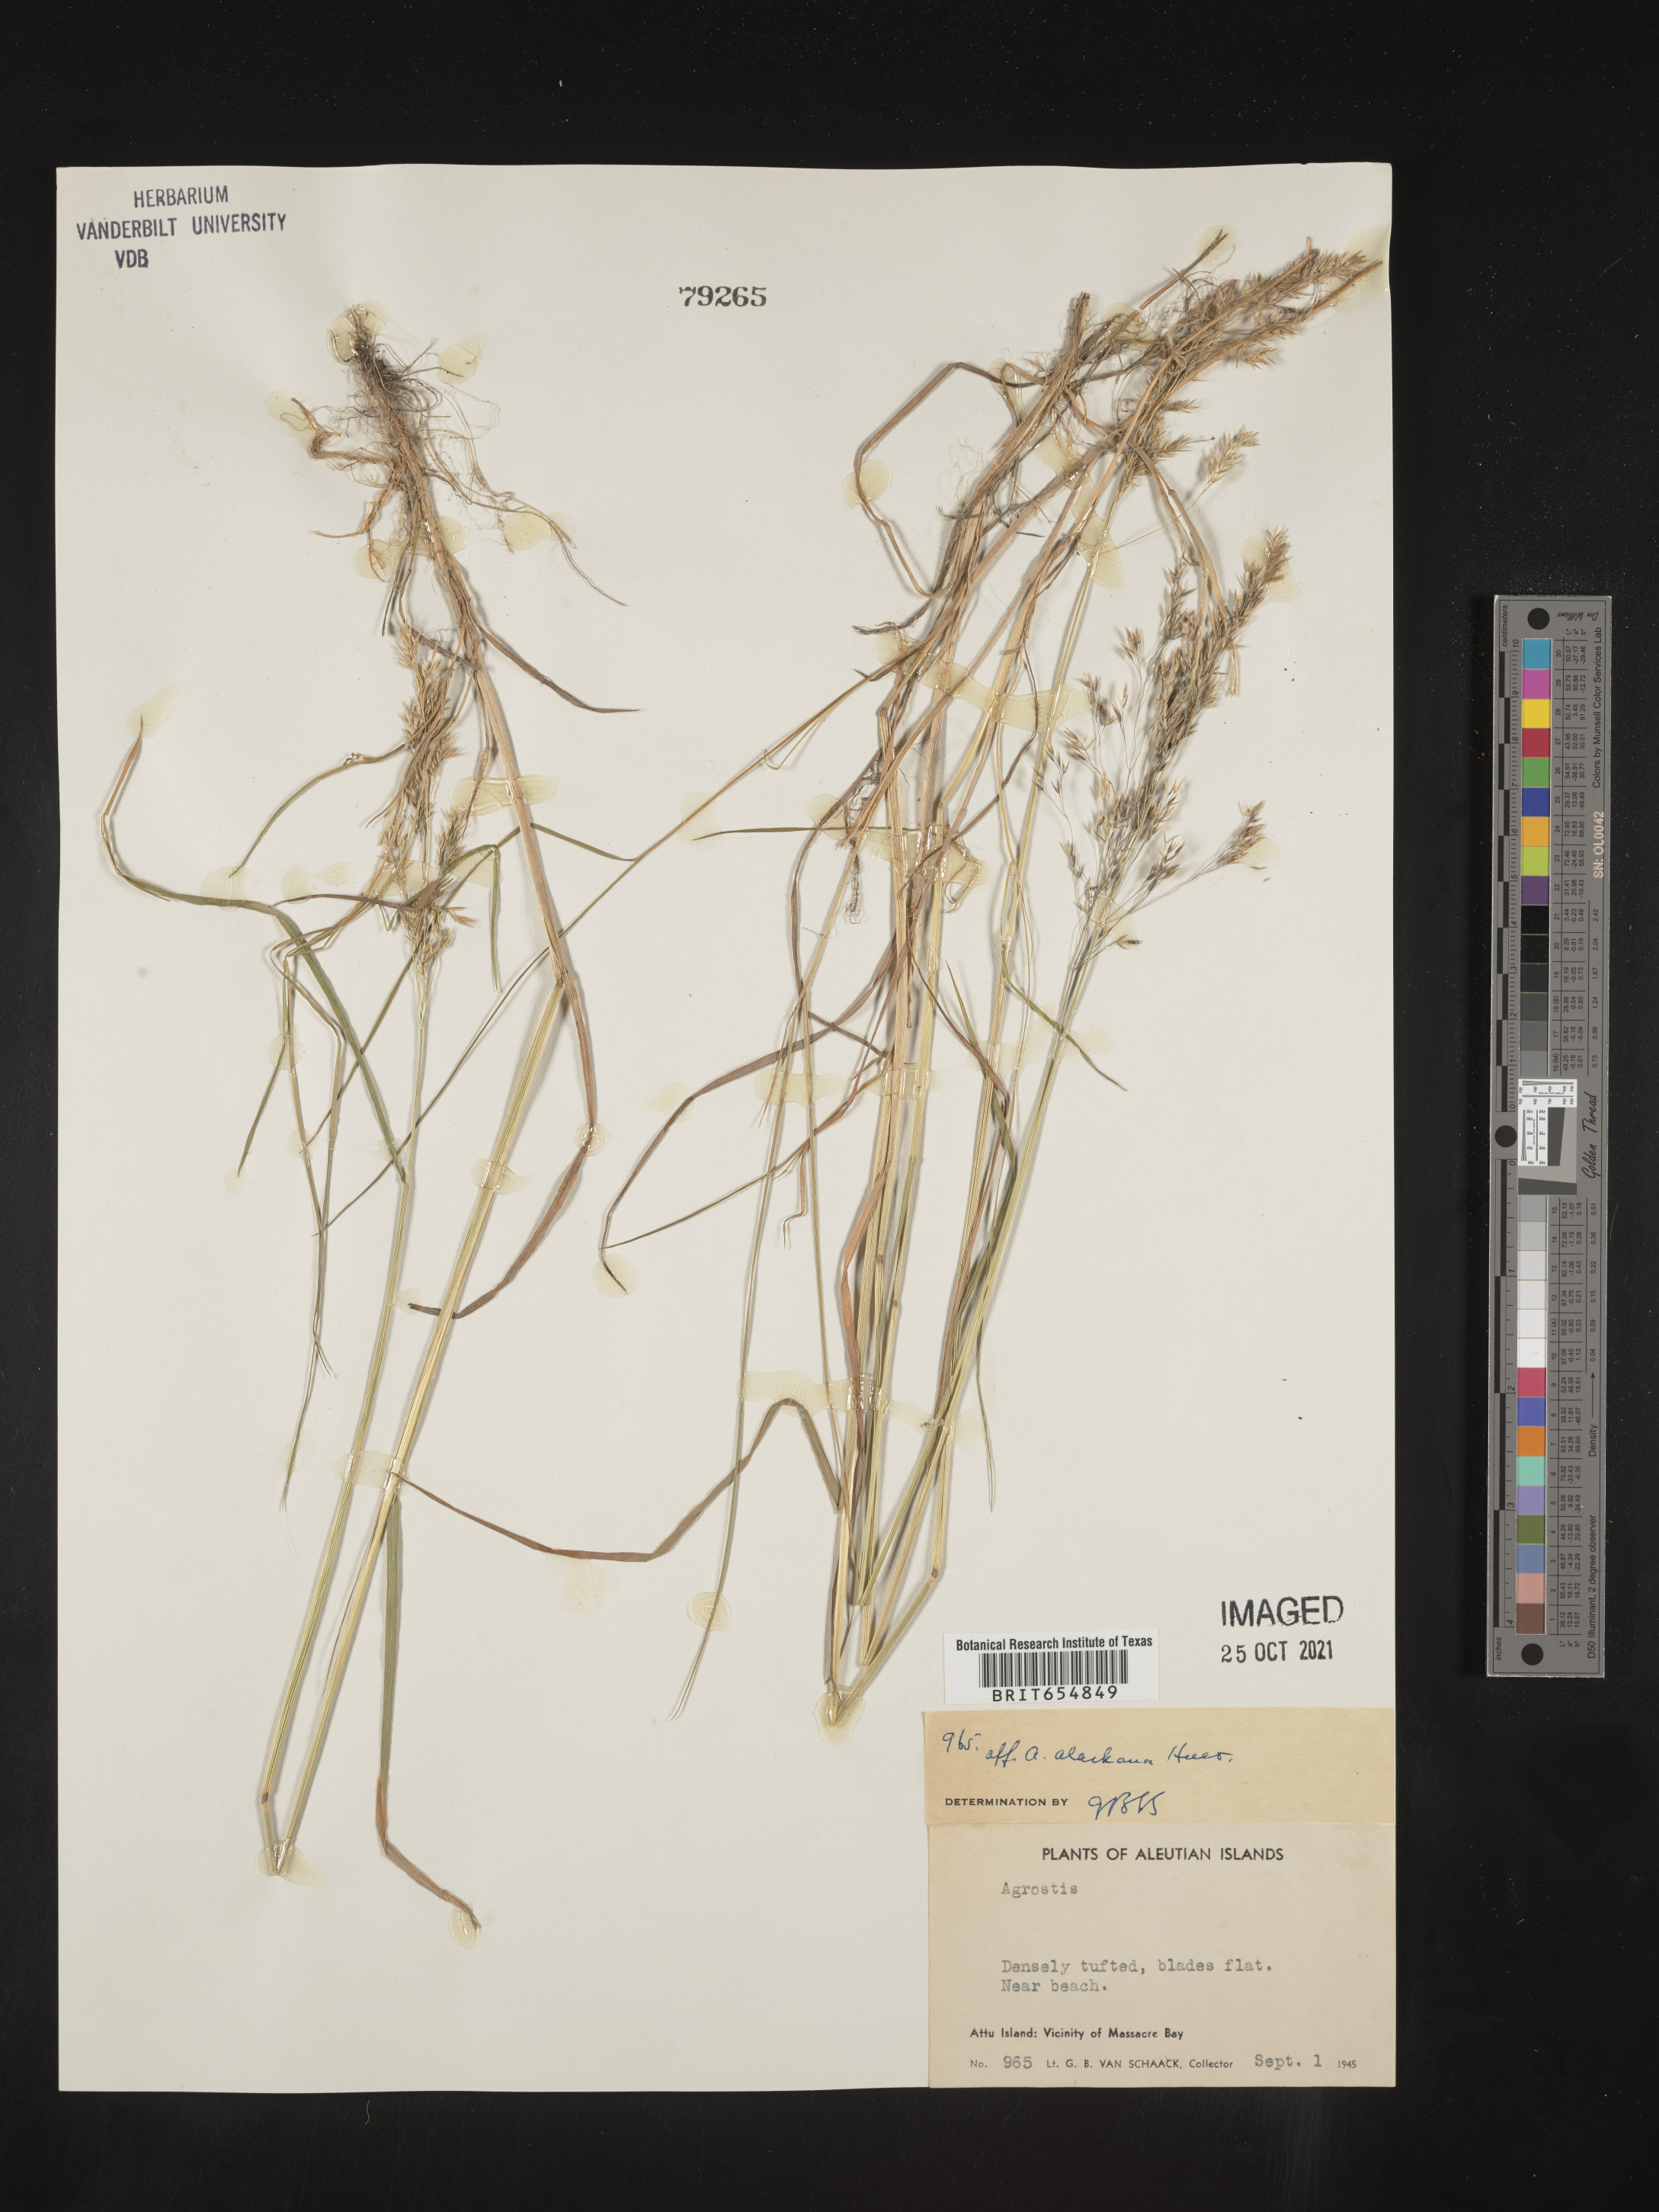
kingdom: Plantae
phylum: Tracheophyta
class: Liliopsida
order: Poales
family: Poaceae
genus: Agrostis
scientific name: Agrostis
